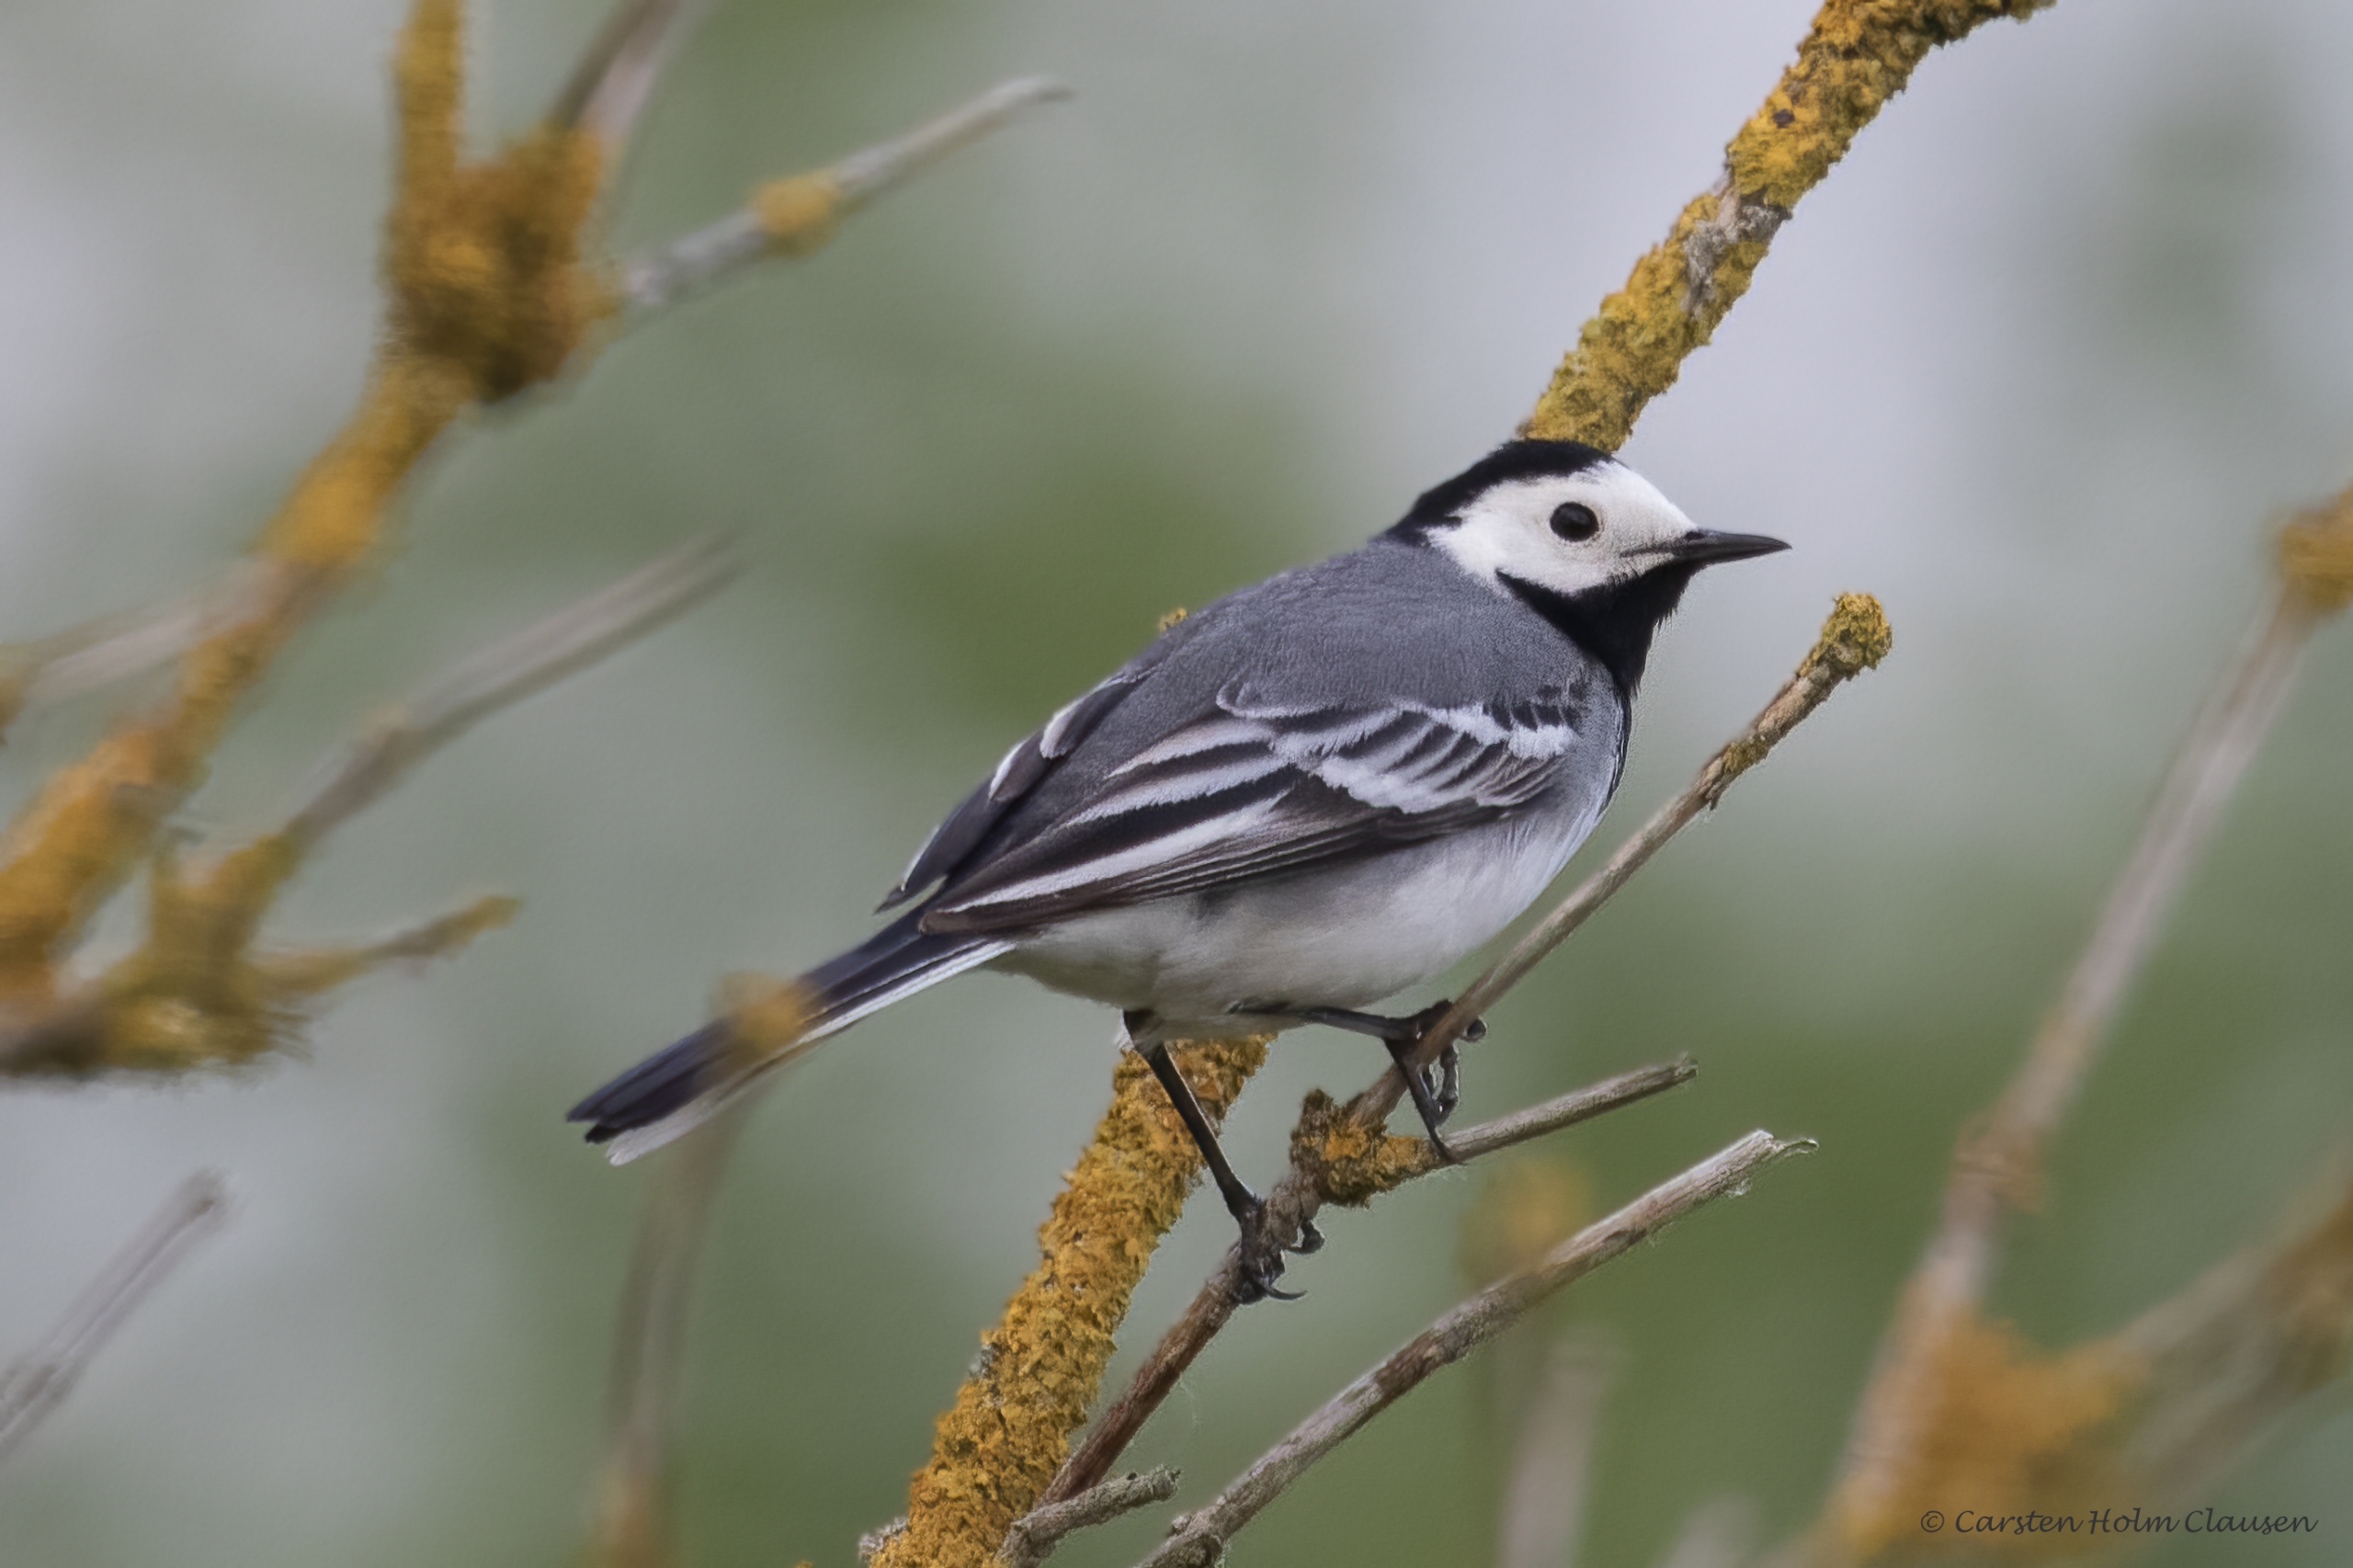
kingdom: Animalia
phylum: Chordata
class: Aves
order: Passeriformes
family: Motacillidae
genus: Motacilla
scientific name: Motacilla alba
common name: Hvid vipstjert
